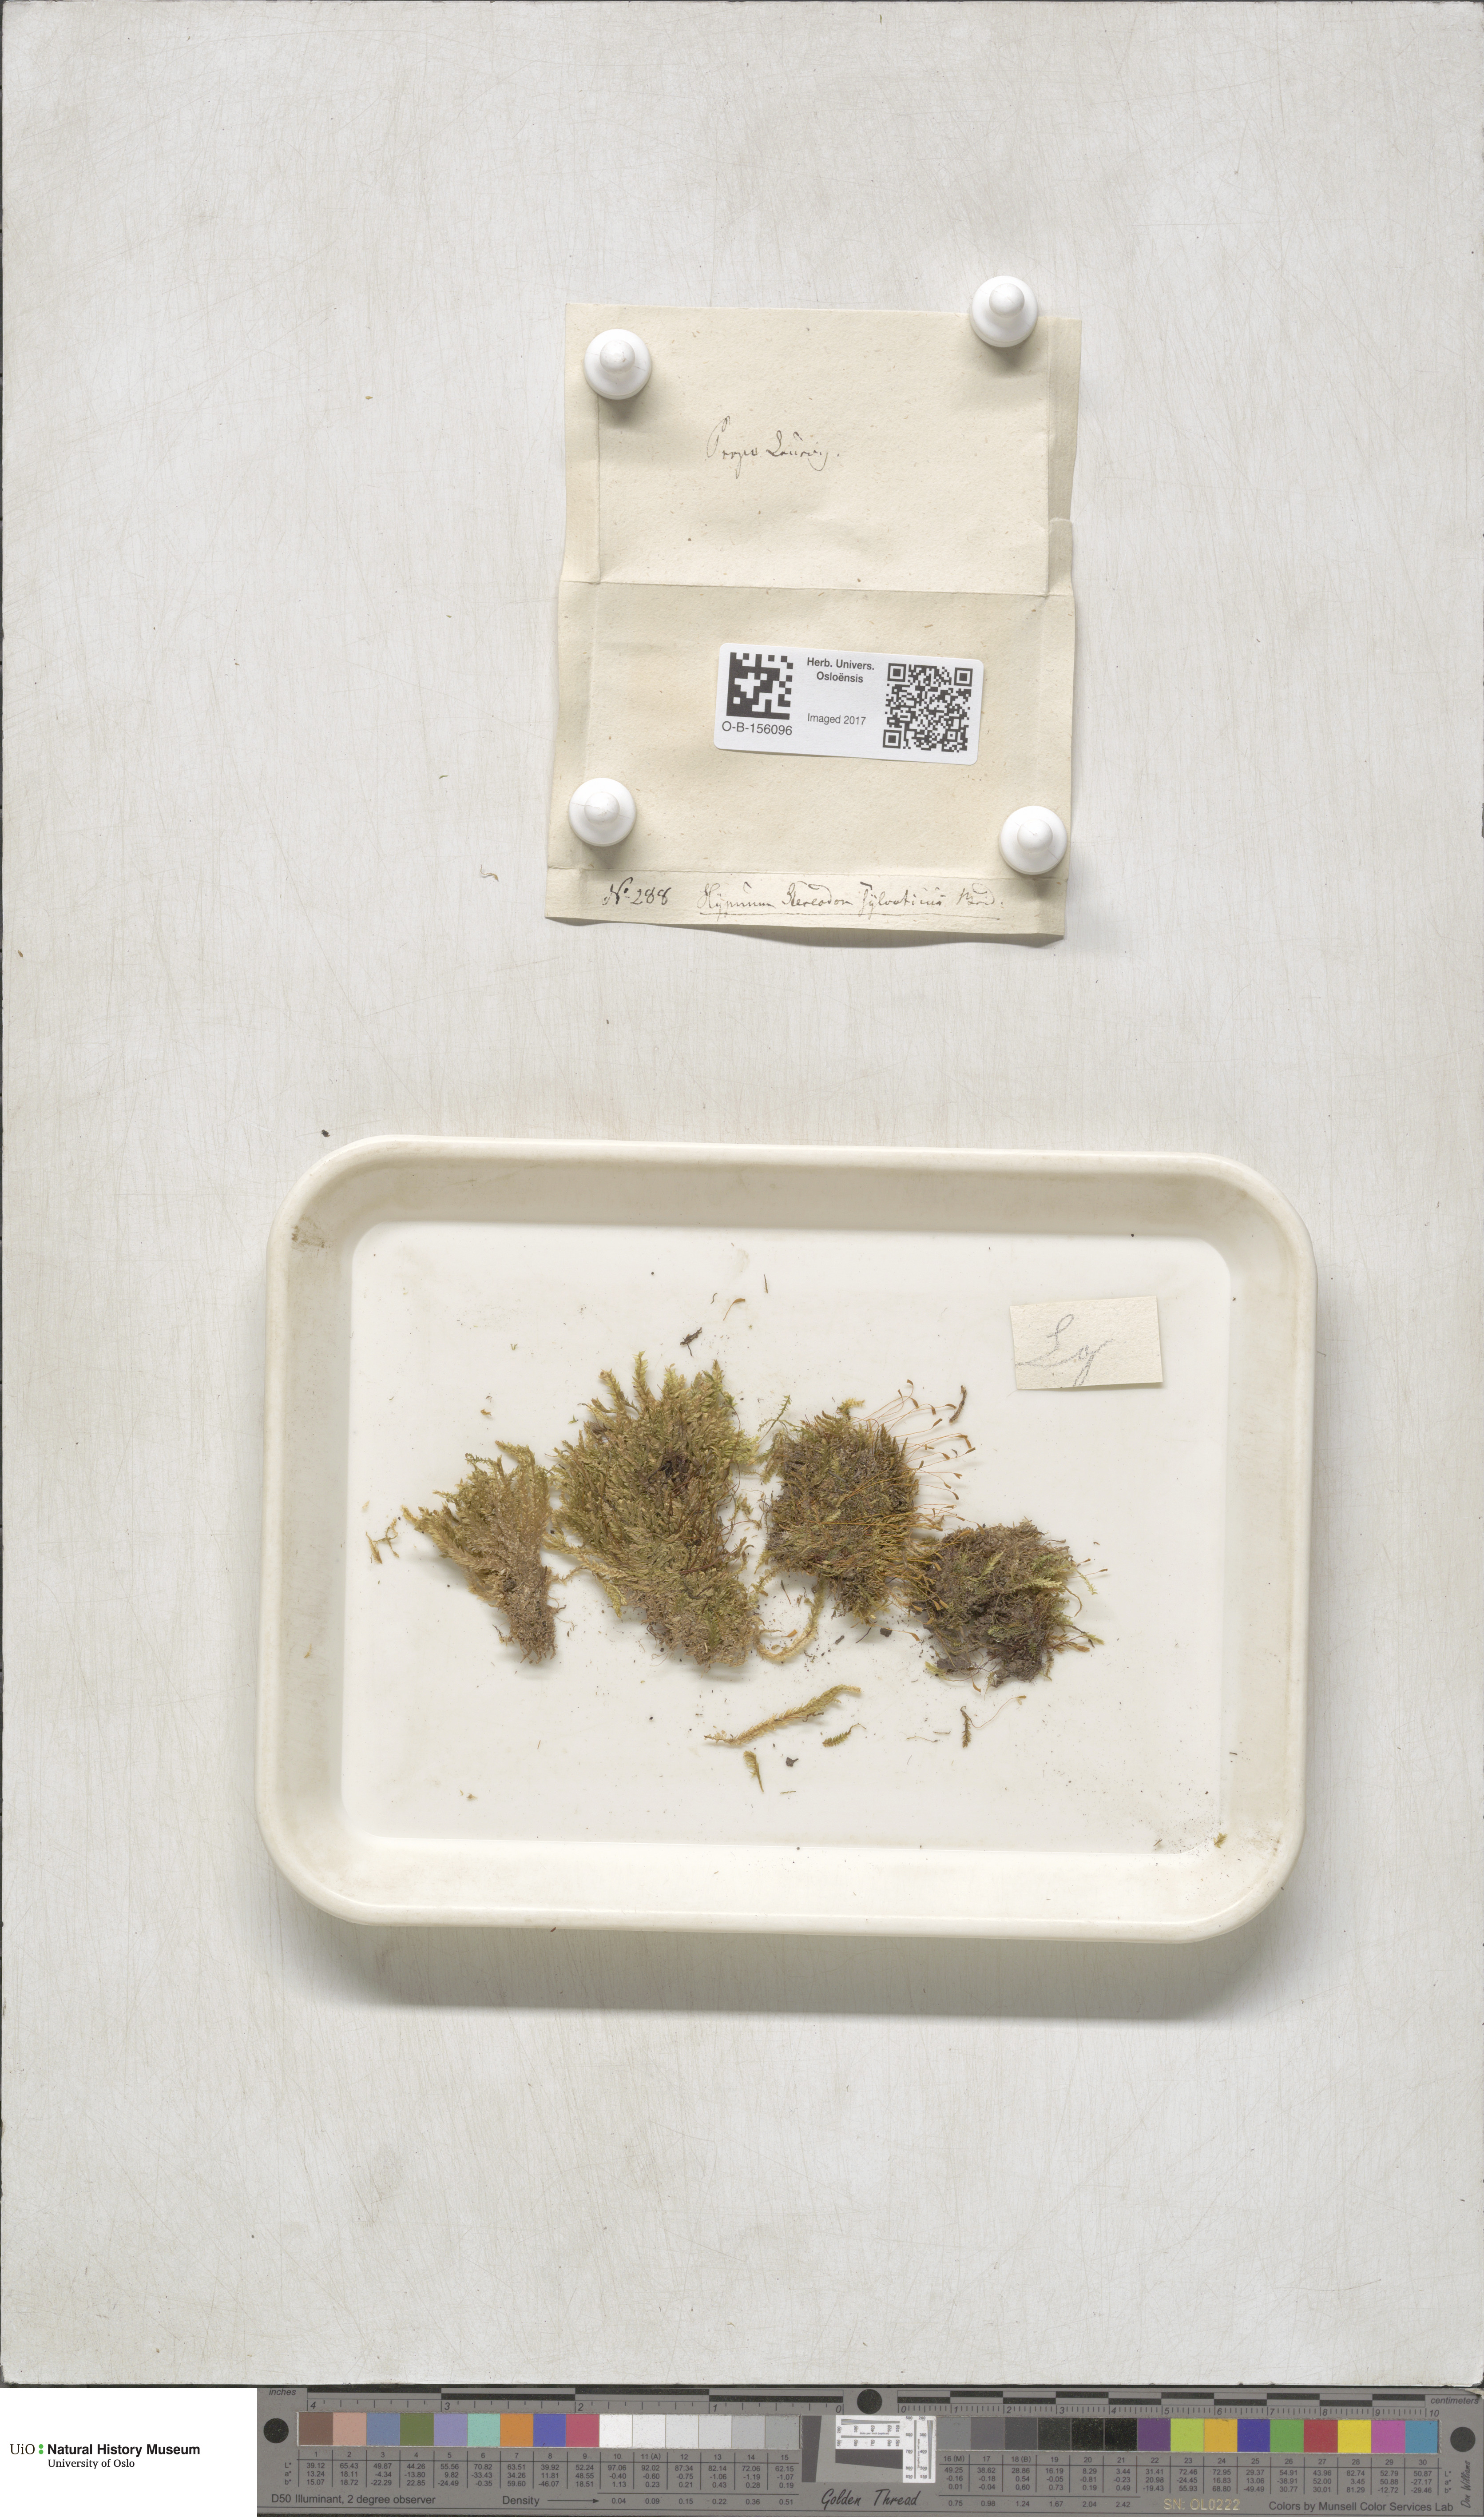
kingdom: Plantae
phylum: Bryophyta
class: Bryopsida
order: Hypnales
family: Plagiotheciaceae
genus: Plagiothecium
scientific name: Plagiothecium nemorale
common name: Woodsy silk-moss
